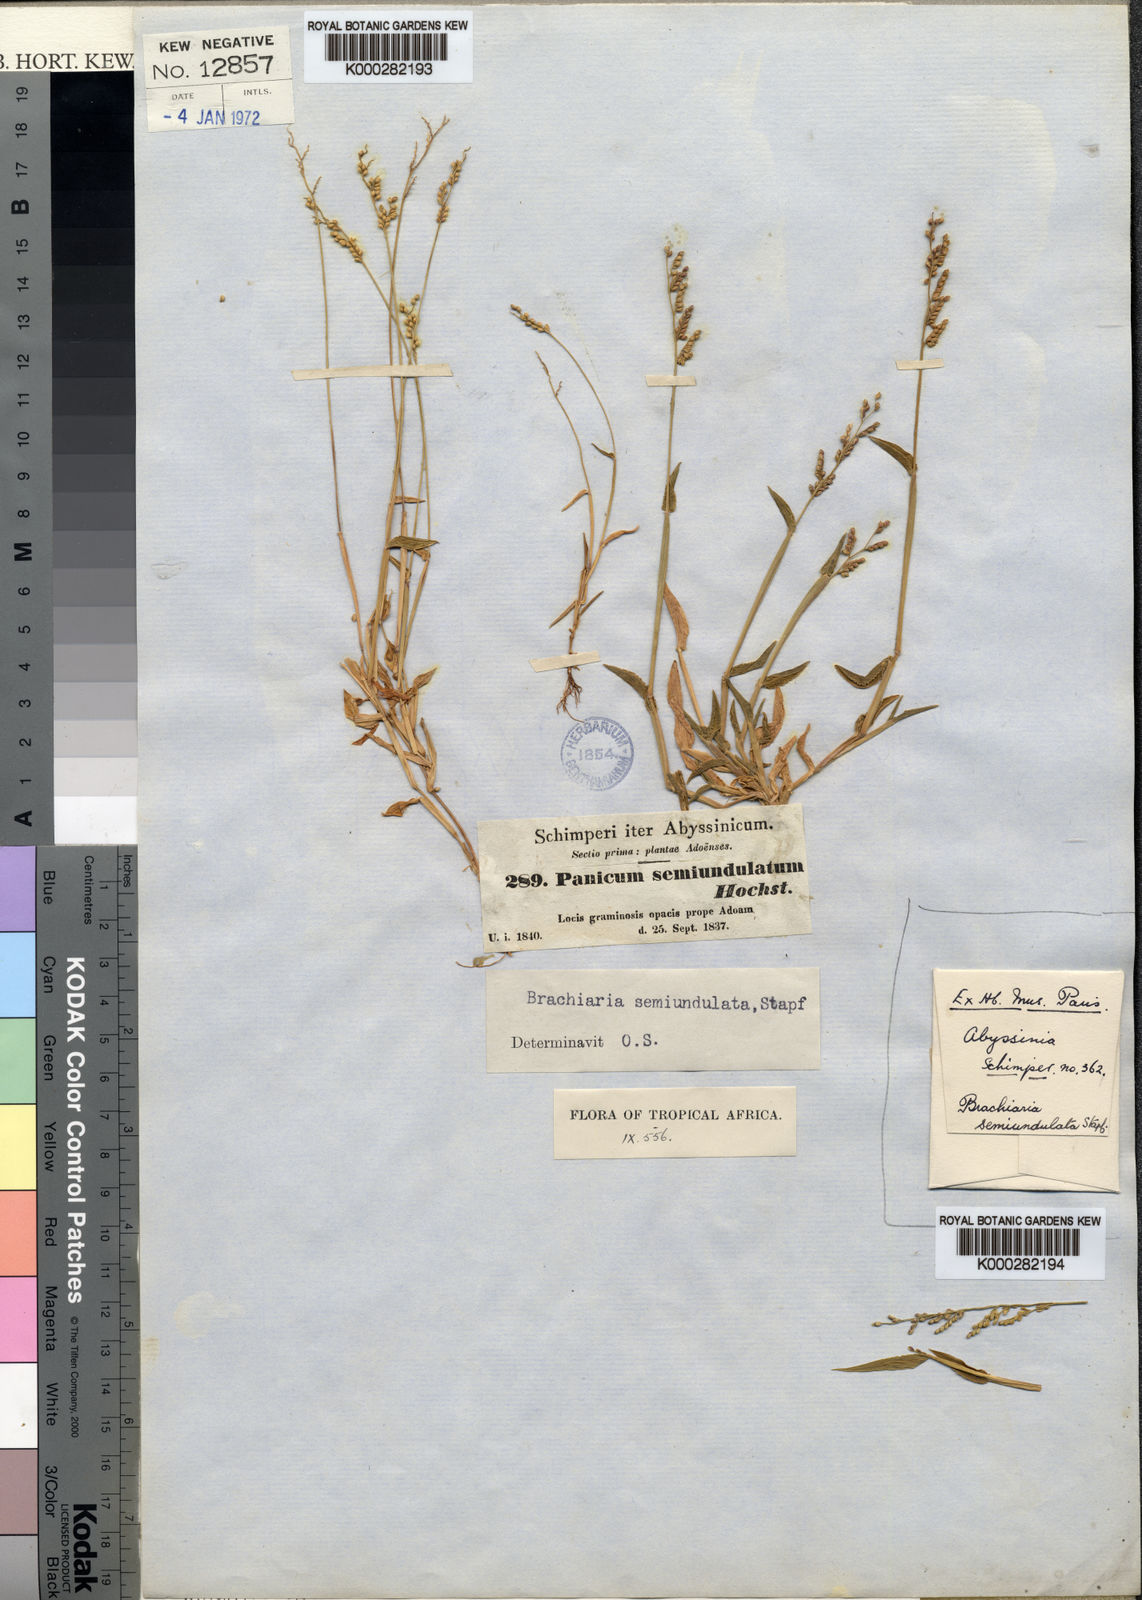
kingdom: Plantae
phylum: Tracheophyta
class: Liliopsida
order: Poales
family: Poaceae
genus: Urochloa
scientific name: Urochloa semiundulata
